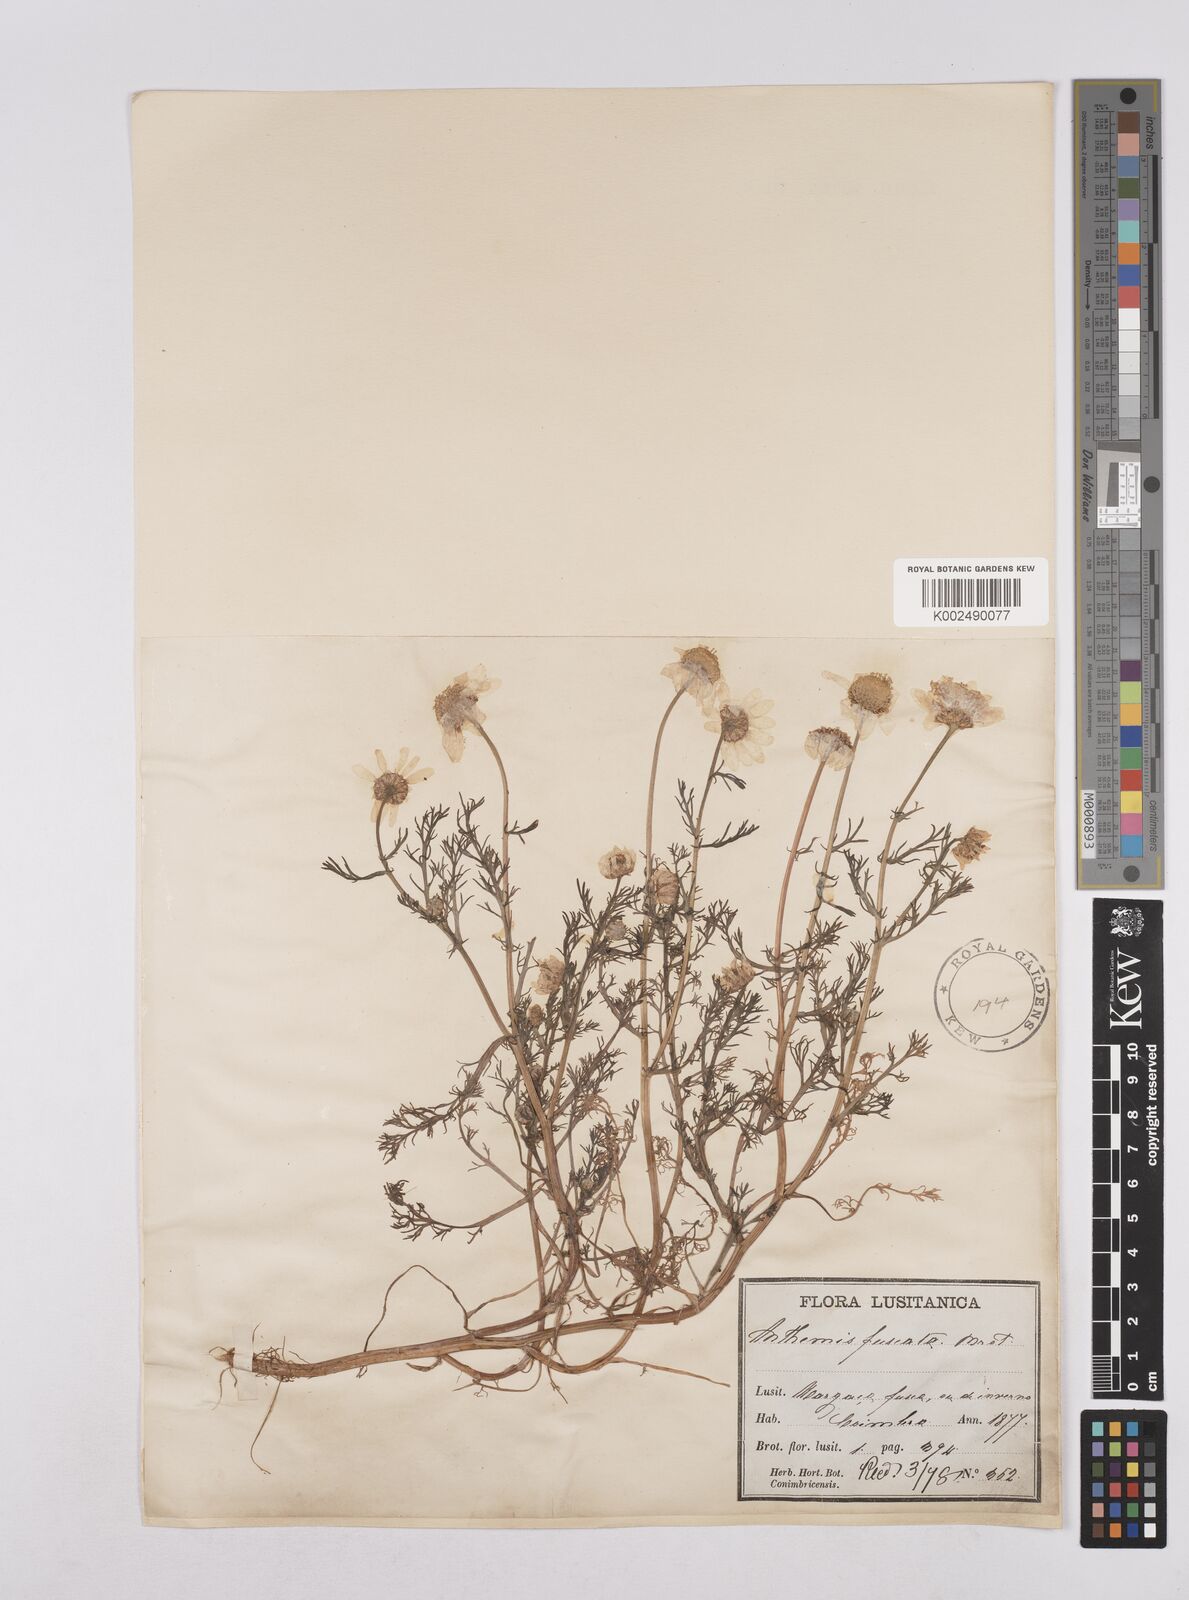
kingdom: Plantae
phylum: Tracheophyta
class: Magnoliopsida
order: Asterales
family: Asteraceae
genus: Chamaemelum
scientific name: Chamaemelum fuscatum
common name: Chamomile
